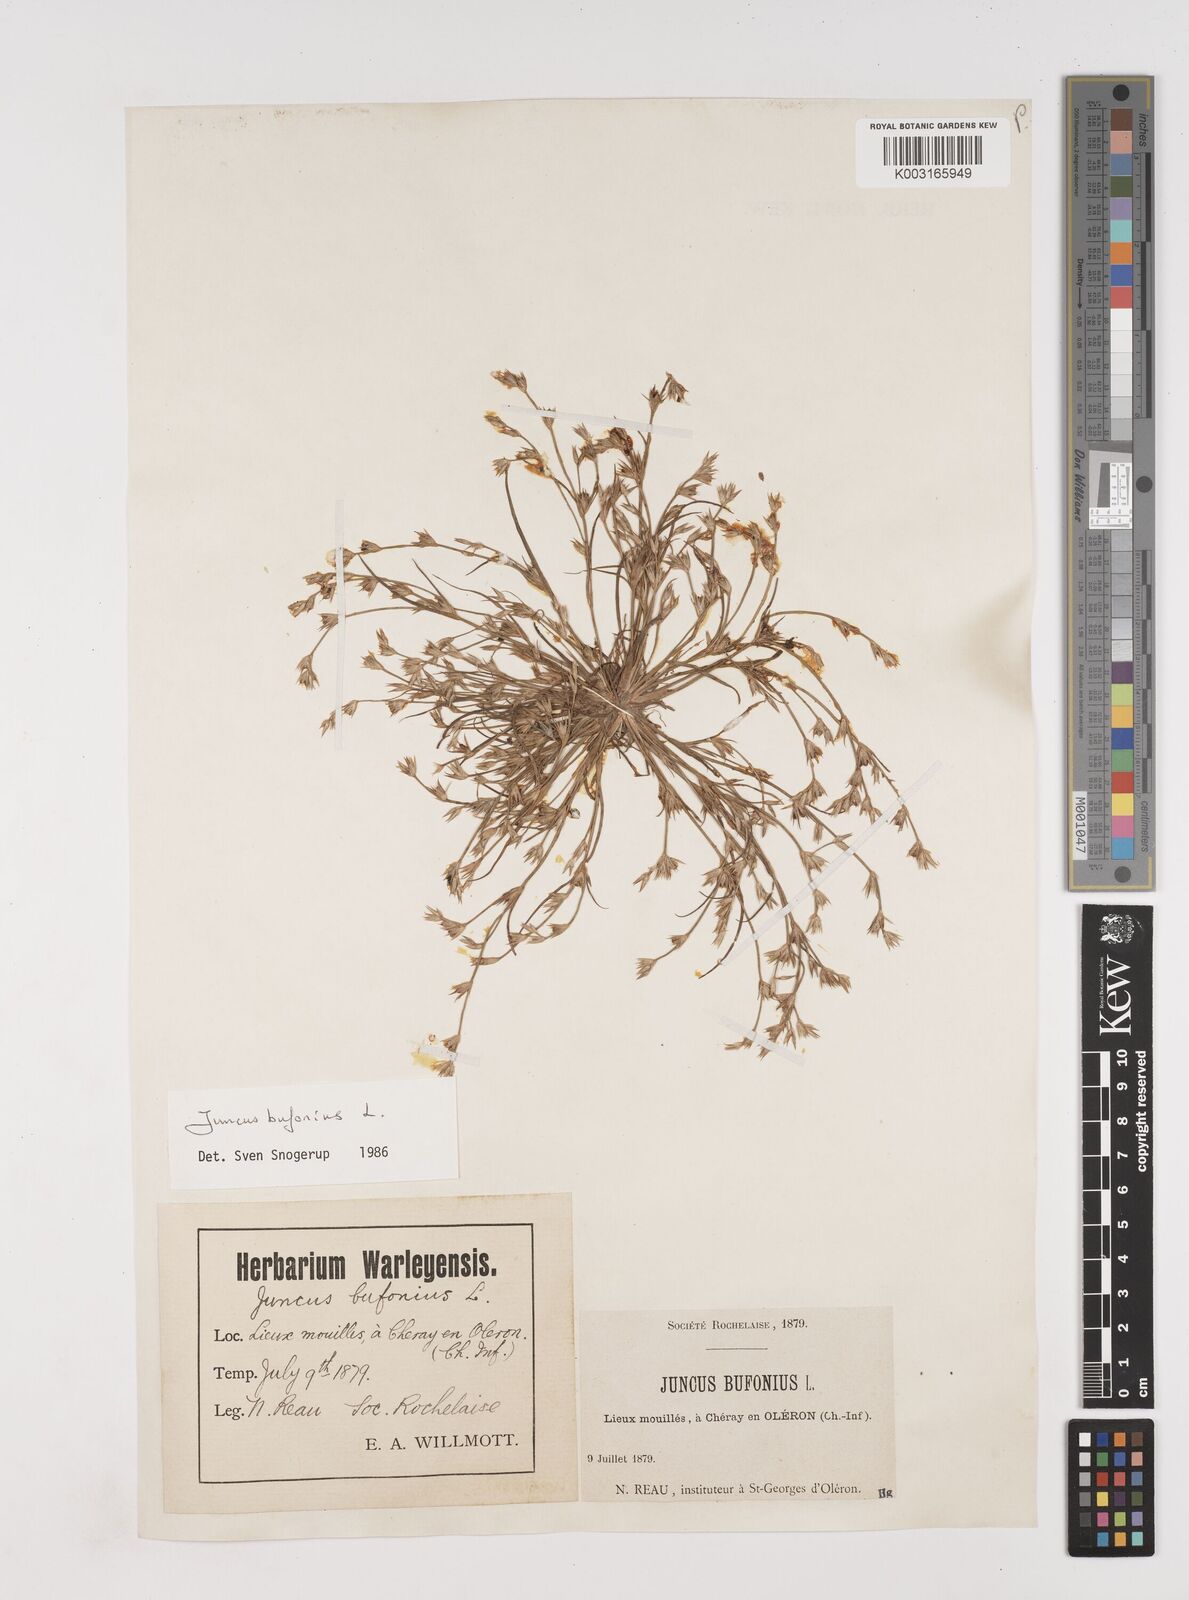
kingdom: Plantae
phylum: Tracheophyta
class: Liliopsida
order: Poales
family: Juncaceae
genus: Juncus
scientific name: Juncus bufonius
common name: Toad rush
